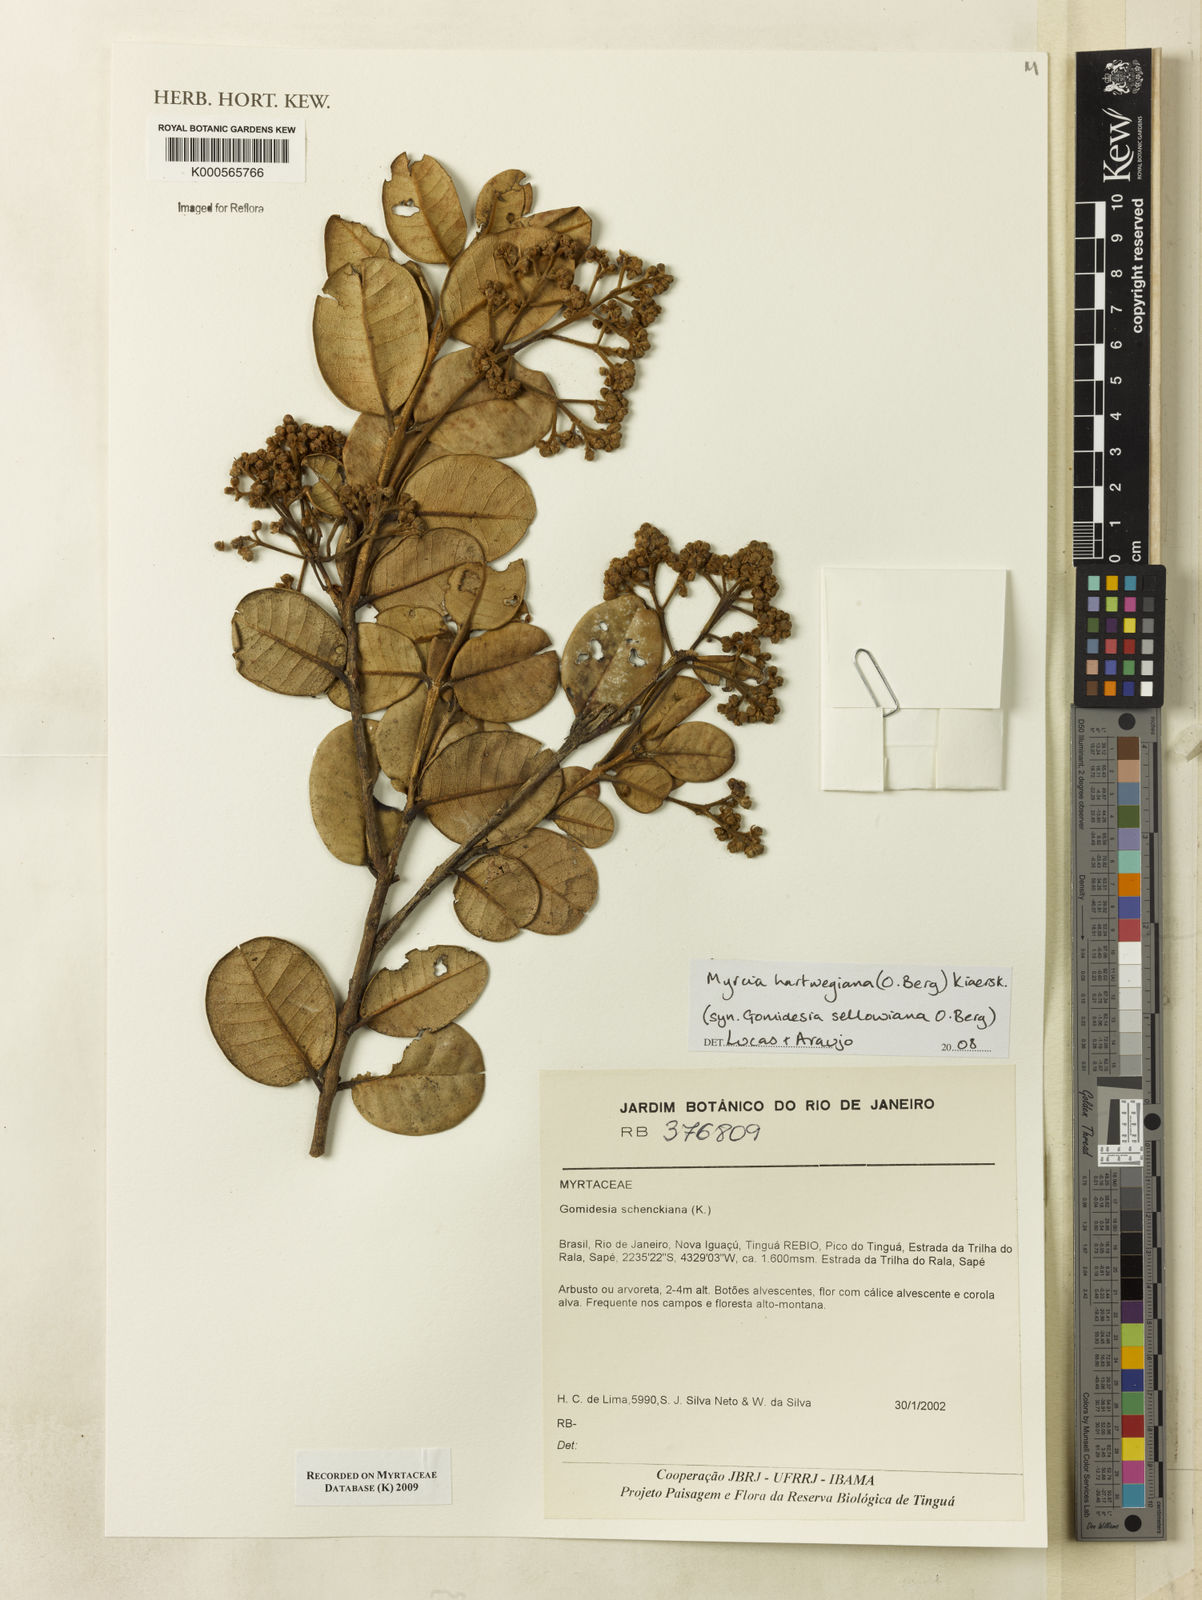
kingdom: Plantae
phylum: Tracheophyta
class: Magnoliopsida
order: Myrtales
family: Myrtaceae
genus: Myrcia
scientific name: Myrcia hartwegiana
